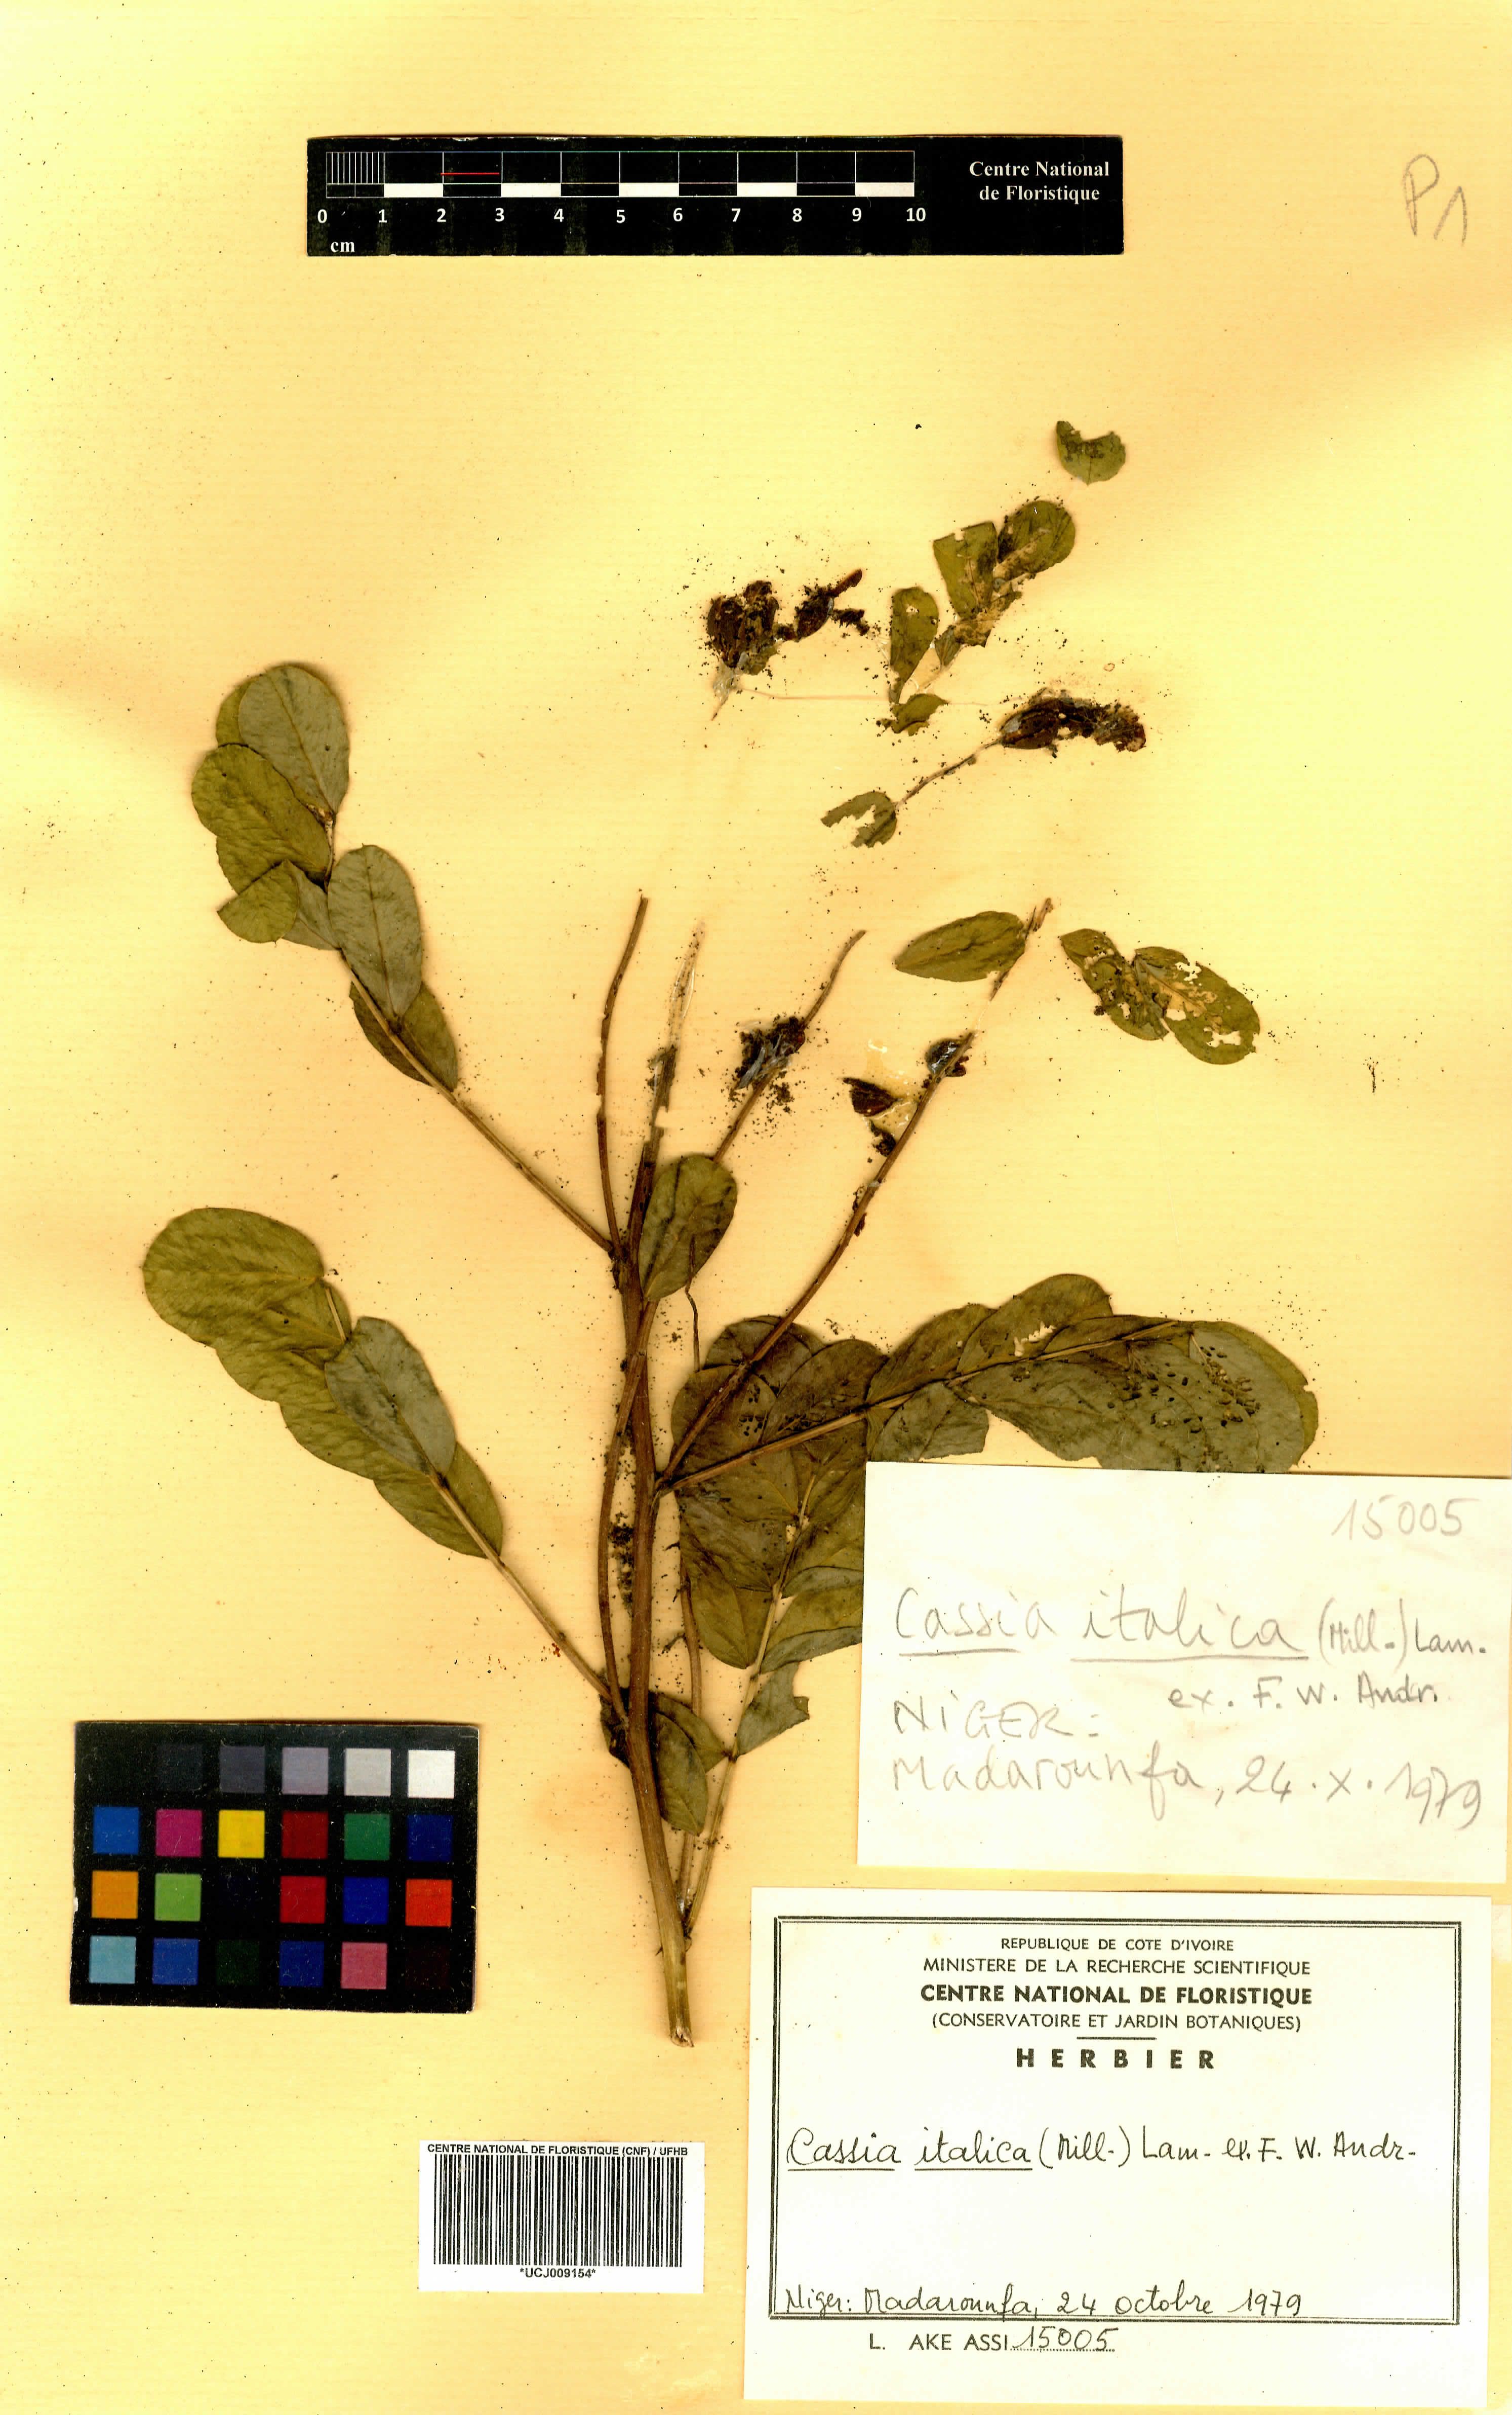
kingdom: Plantae
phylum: Tracheophyta
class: Magnoliopsida
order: Fabales
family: Fabaceae
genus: Senna
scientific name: Senna italica
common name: Port royal senna
